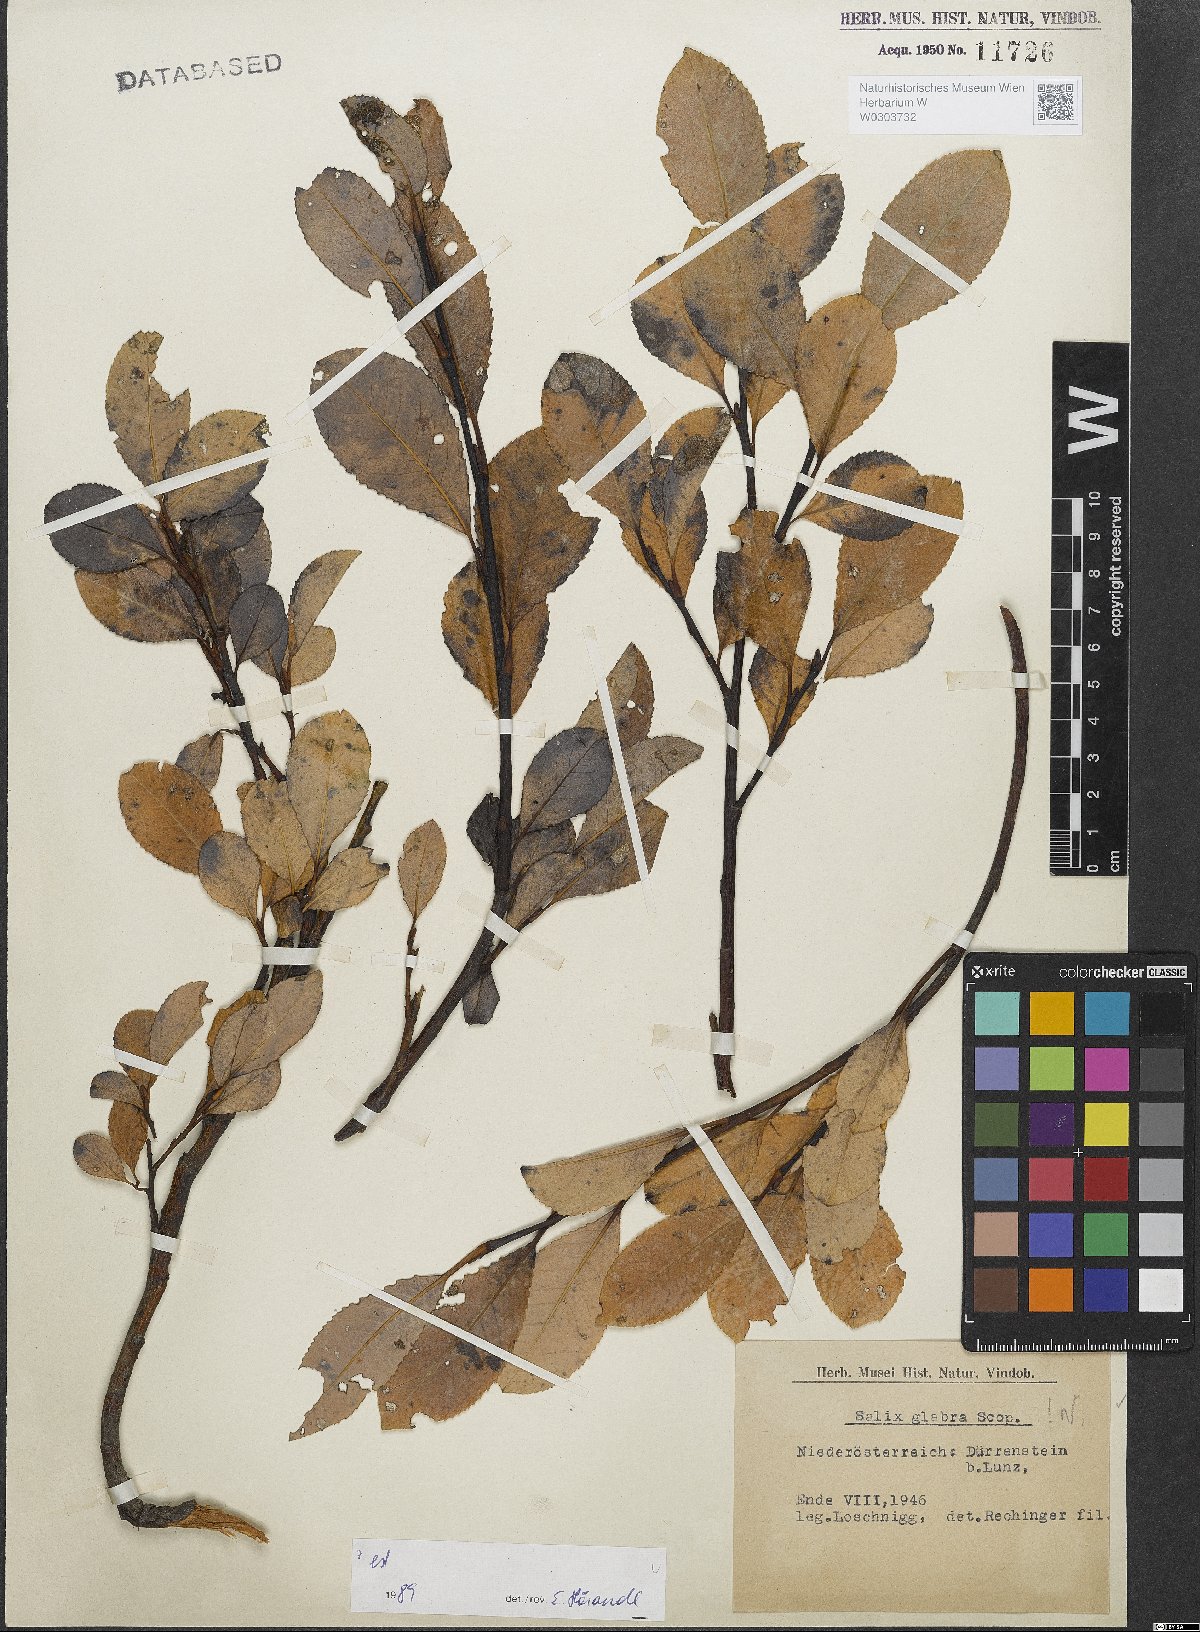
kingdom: Plantae
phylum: Tracheophyta
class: Magnoliopsida
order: Malpighiales
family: Salicaceae
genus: Salix
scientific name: Salix glabra
